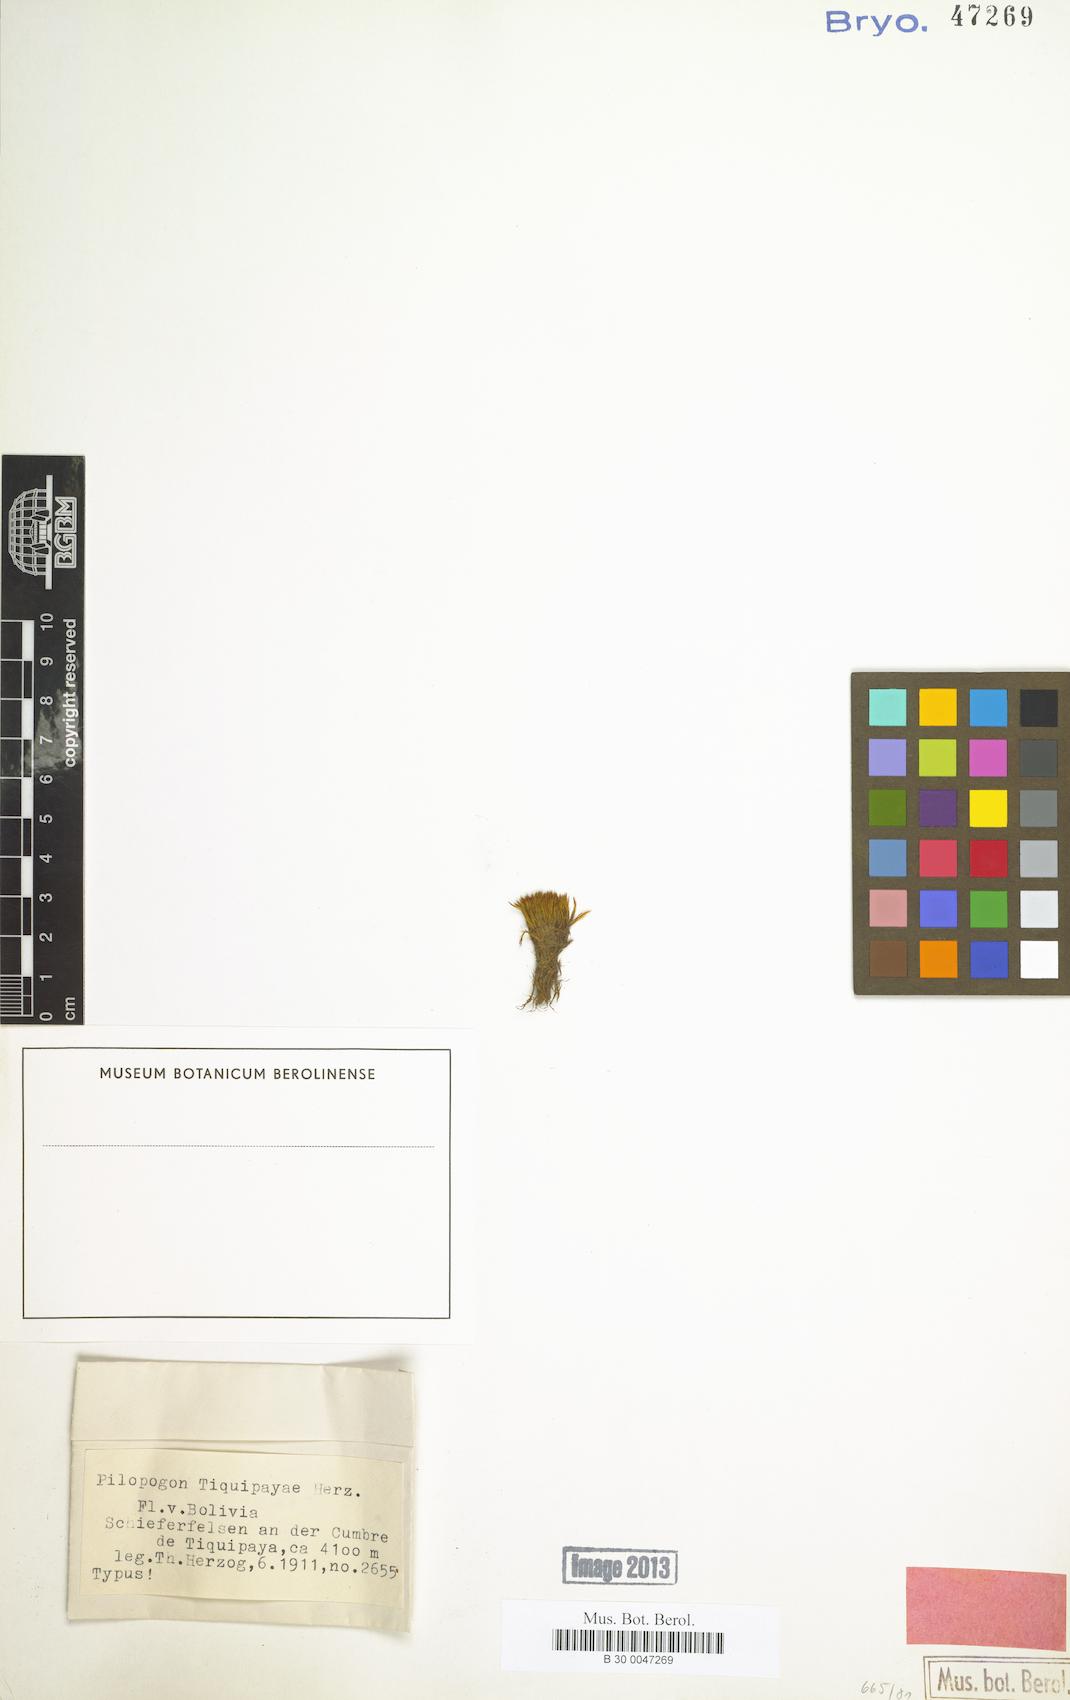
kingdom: Plantae
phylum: Bryophyta
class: Bryopsida
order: Dicranales
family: Leucobryaceae
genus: Pilopogon
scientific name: Pilopogon tiquipayae
